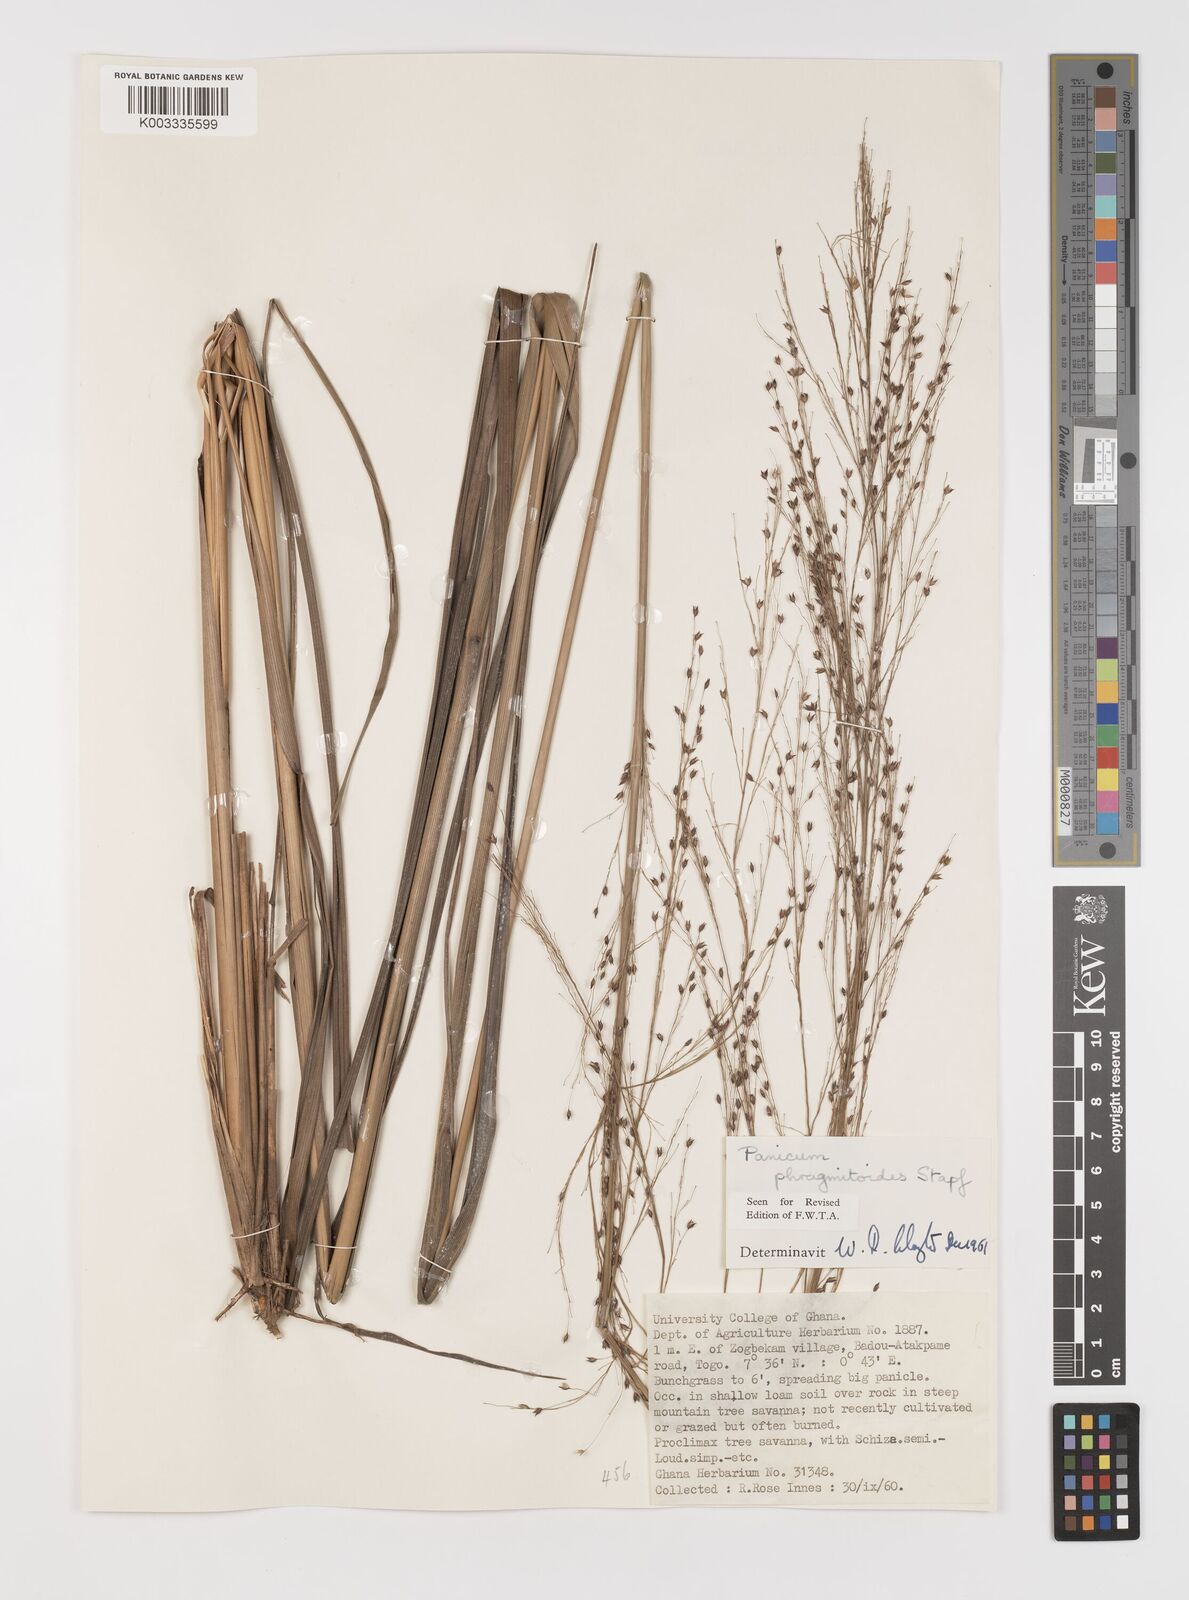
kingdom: Plantae
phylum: Tracheophyta
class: Liliopsida
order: Poales
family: Poaceae
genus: Panicum
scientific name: Panicum phragmitoides
